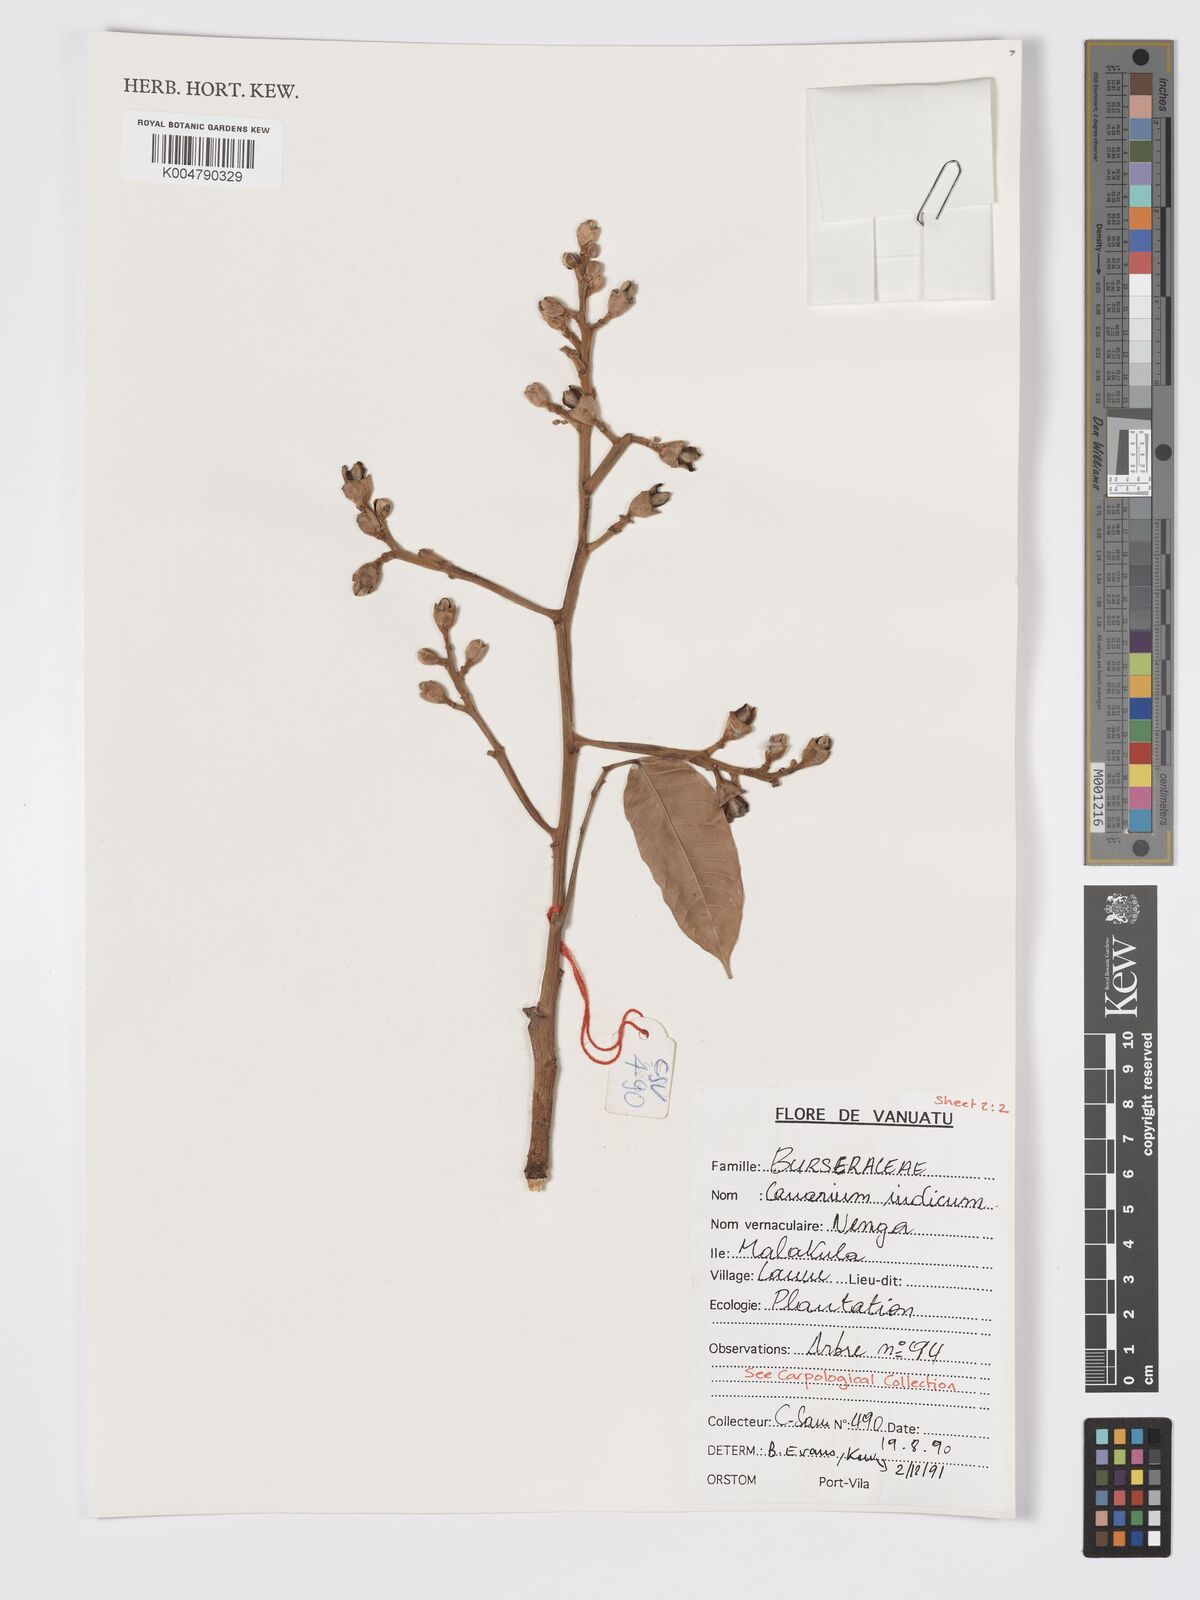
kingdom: Plantae
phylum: Tracheophyta
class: Magnoliopsida
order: Sapindales
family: Burseraceae
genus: Canarium
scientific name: Canarium indicum
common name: Canarium-nut
